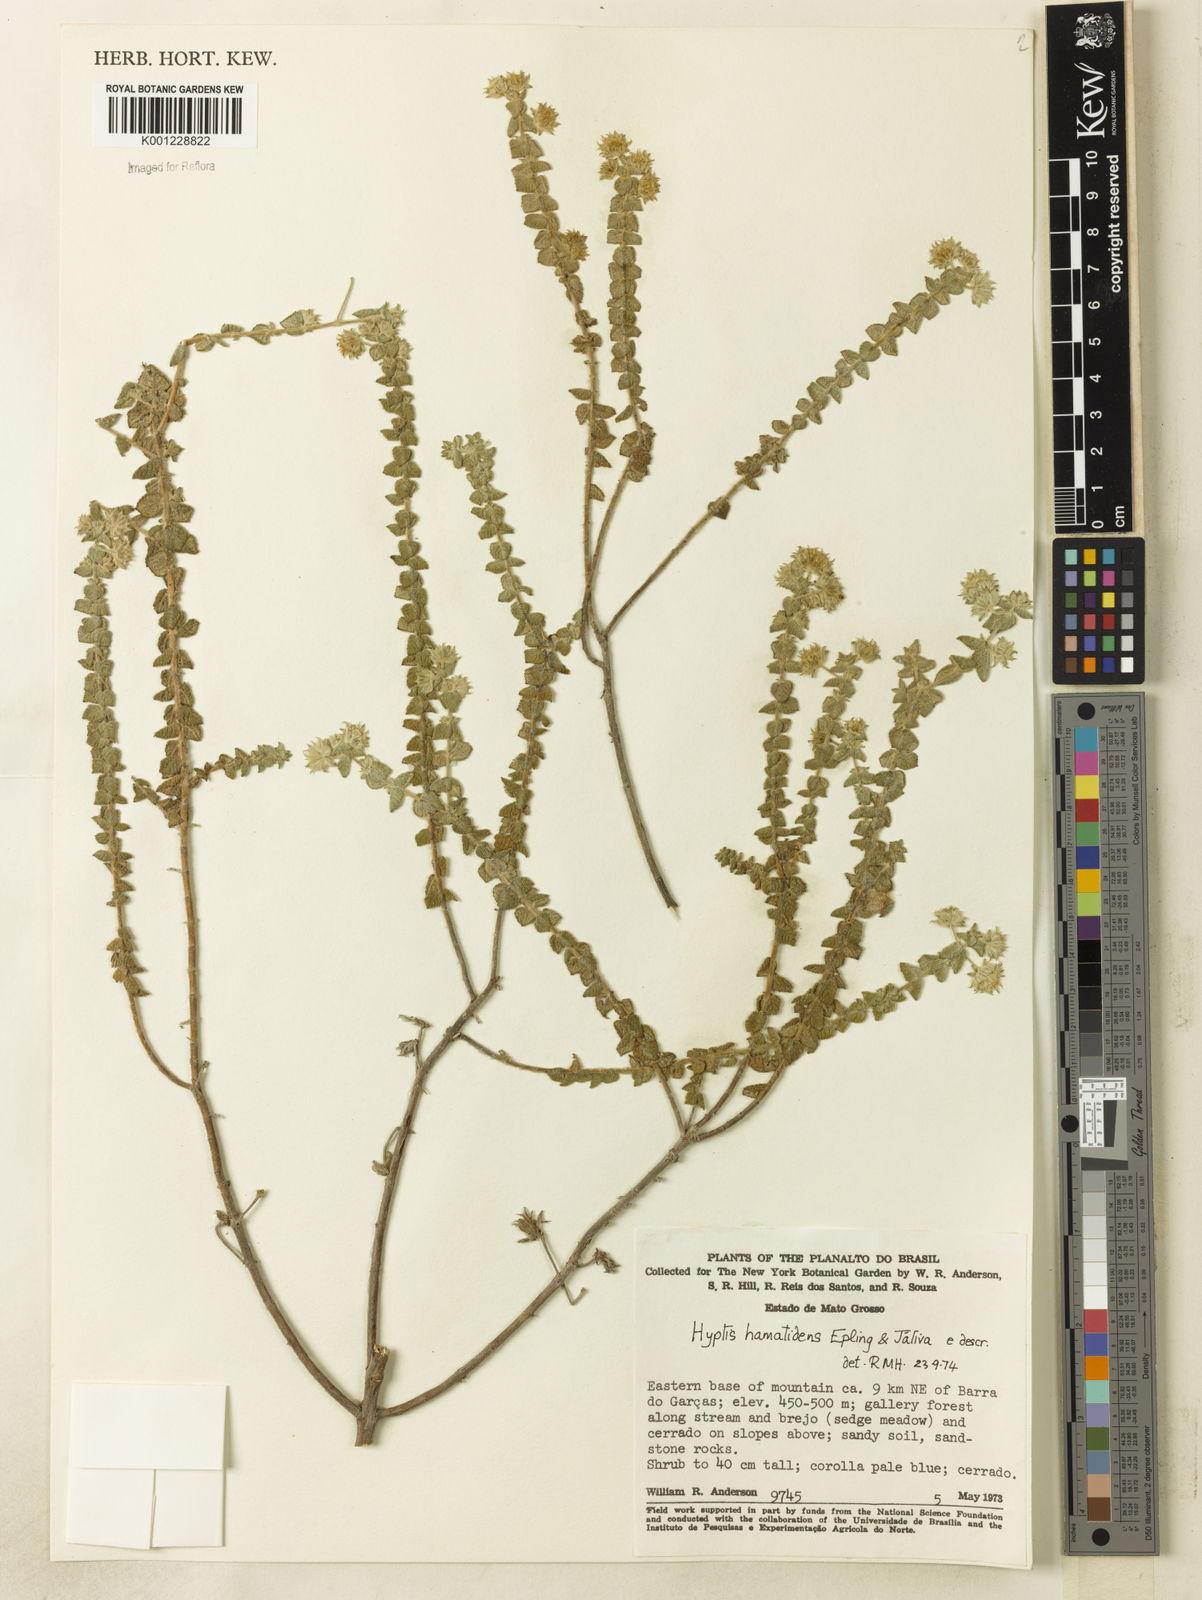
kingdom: Plantae
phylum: Tracheophyta
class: Magnoliopsida
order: Lamiales
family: Lamiaceae
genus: Hyptis
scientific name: Hyptis
